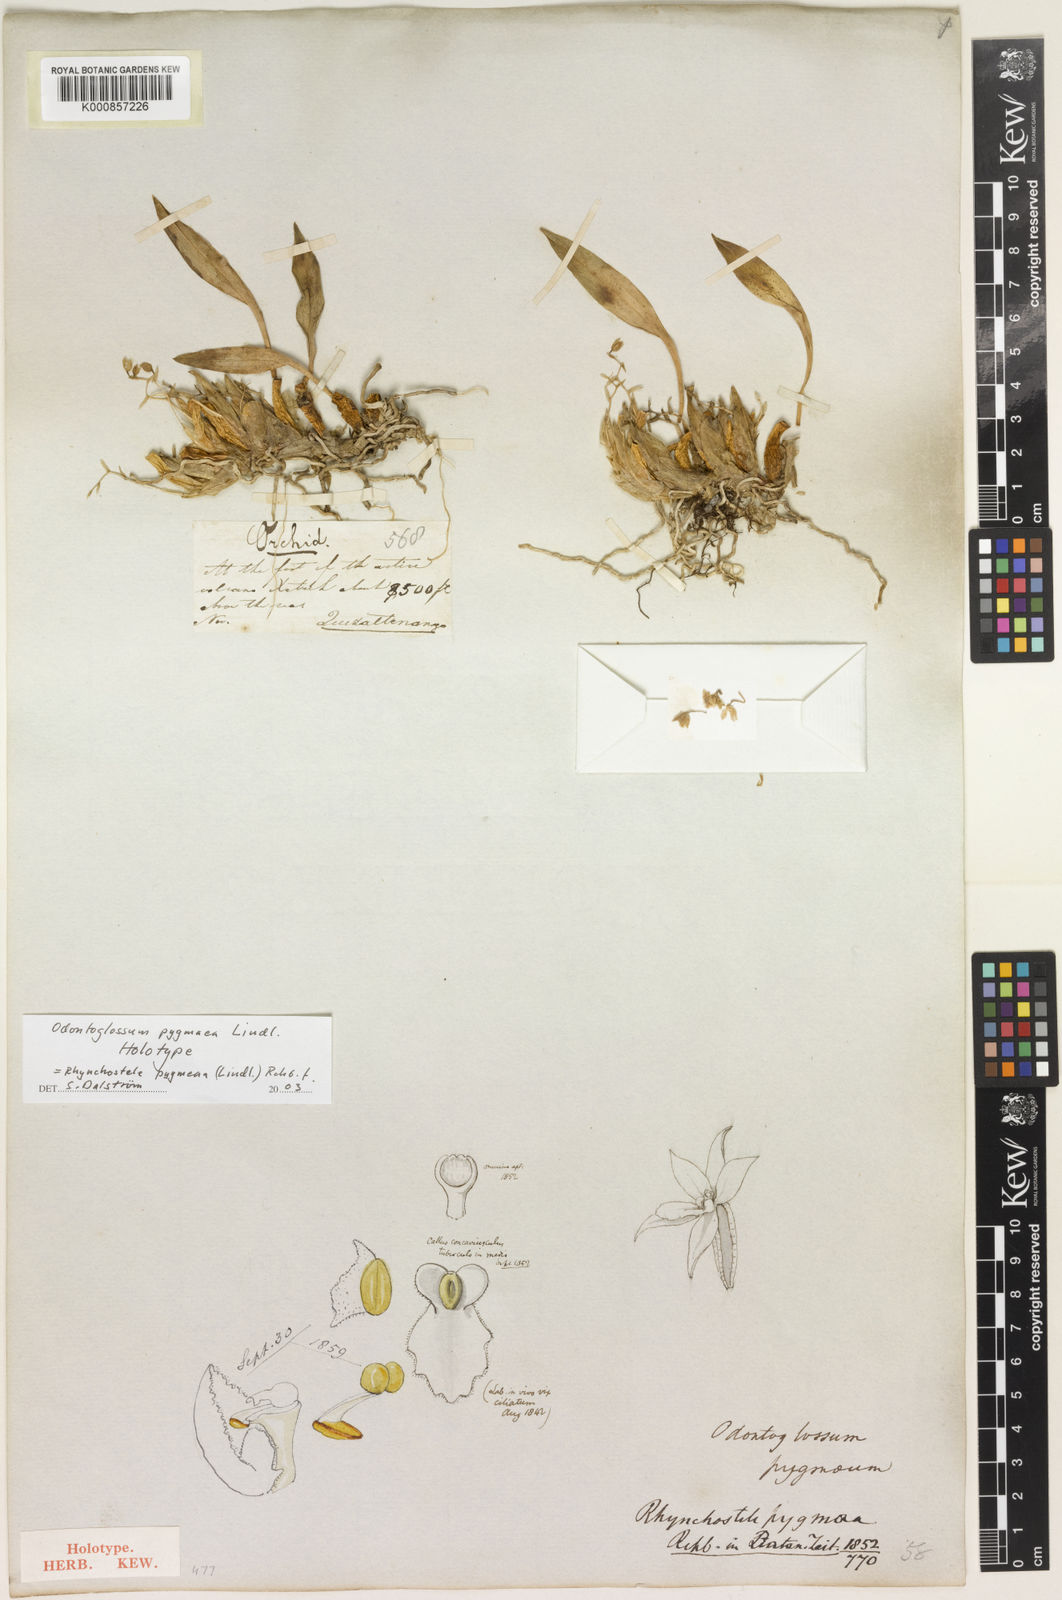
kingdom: Plantae
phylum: Tracheophyta
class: Liliopsida
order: Asparagales
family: Orchidaceae
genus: Rhynchostele
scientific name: Rhynchostele pygmaea
